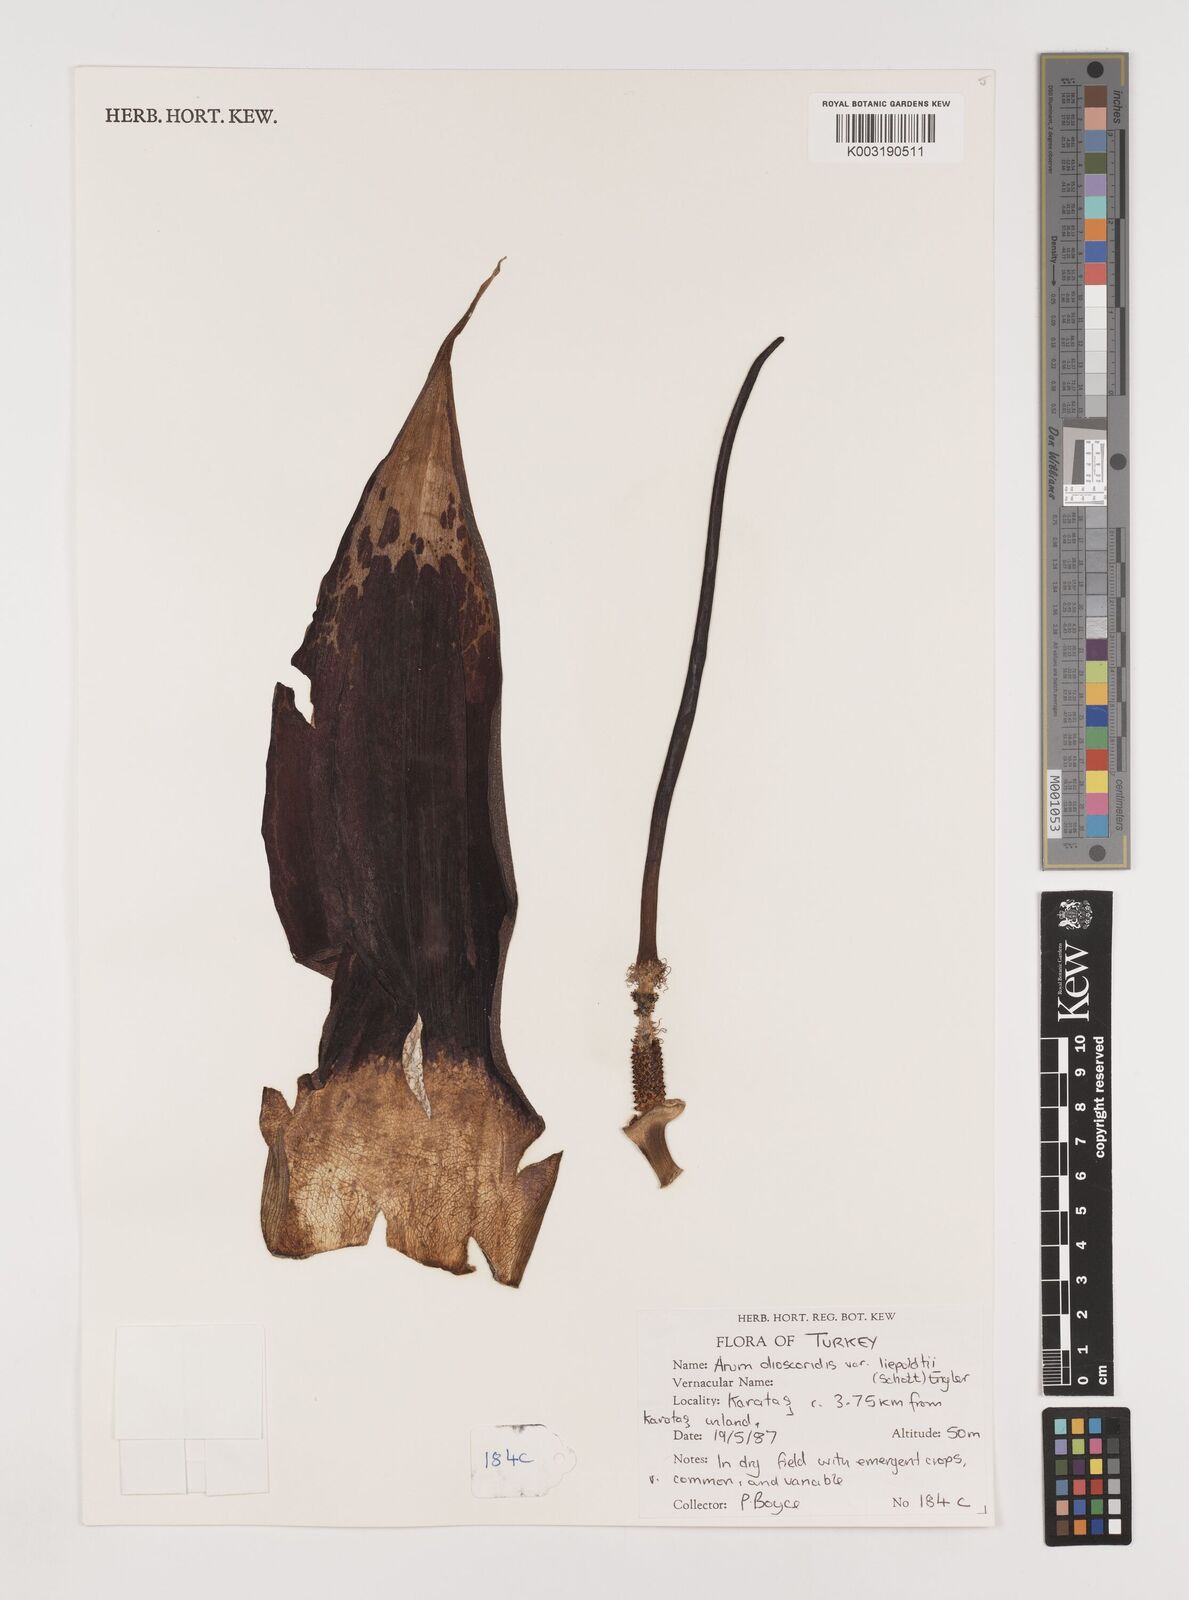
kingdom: Plantae
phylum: Tracheophyta
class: Liliopsida
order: Alismatales
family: Araceae
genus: Arum
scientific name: Arum dioscoridis
